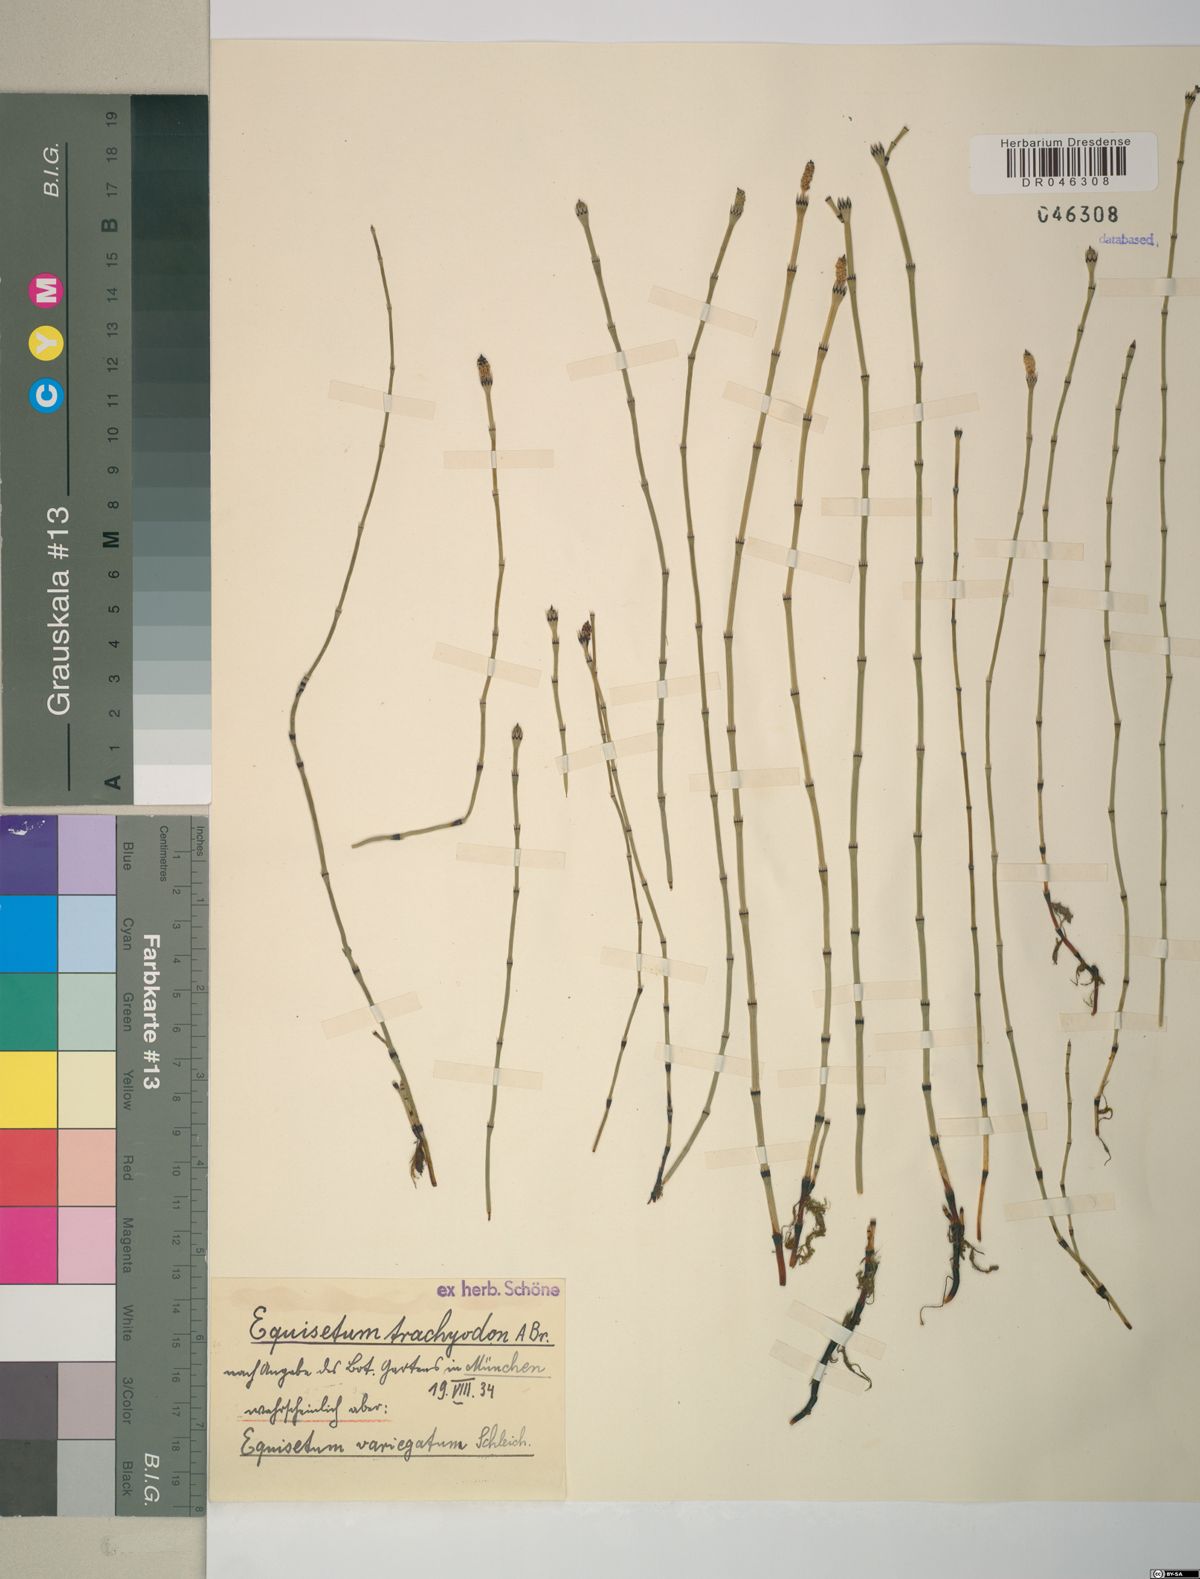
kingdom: Plantae
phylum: Tracheophyta
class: Polypodiopsida
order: Equisetales
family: Equisetaceae
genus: Equisetum
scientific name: Equisetum variegatum
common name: Variegated horsetail
